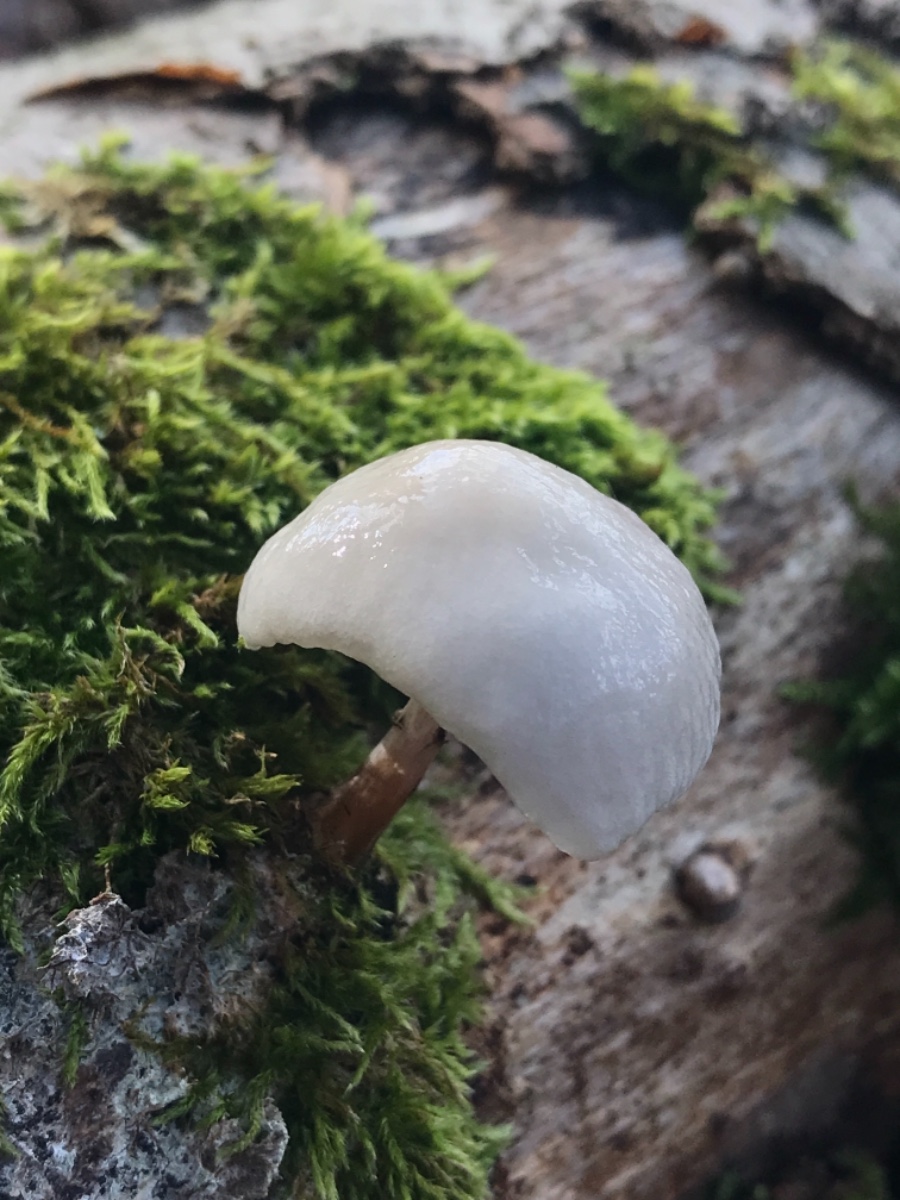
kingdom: Fungi
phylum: Basidiomycota
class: Agaricomycetes
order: Agaricales
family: Physalacriaceae
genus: Mucidula
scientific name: Mucidula mucida
